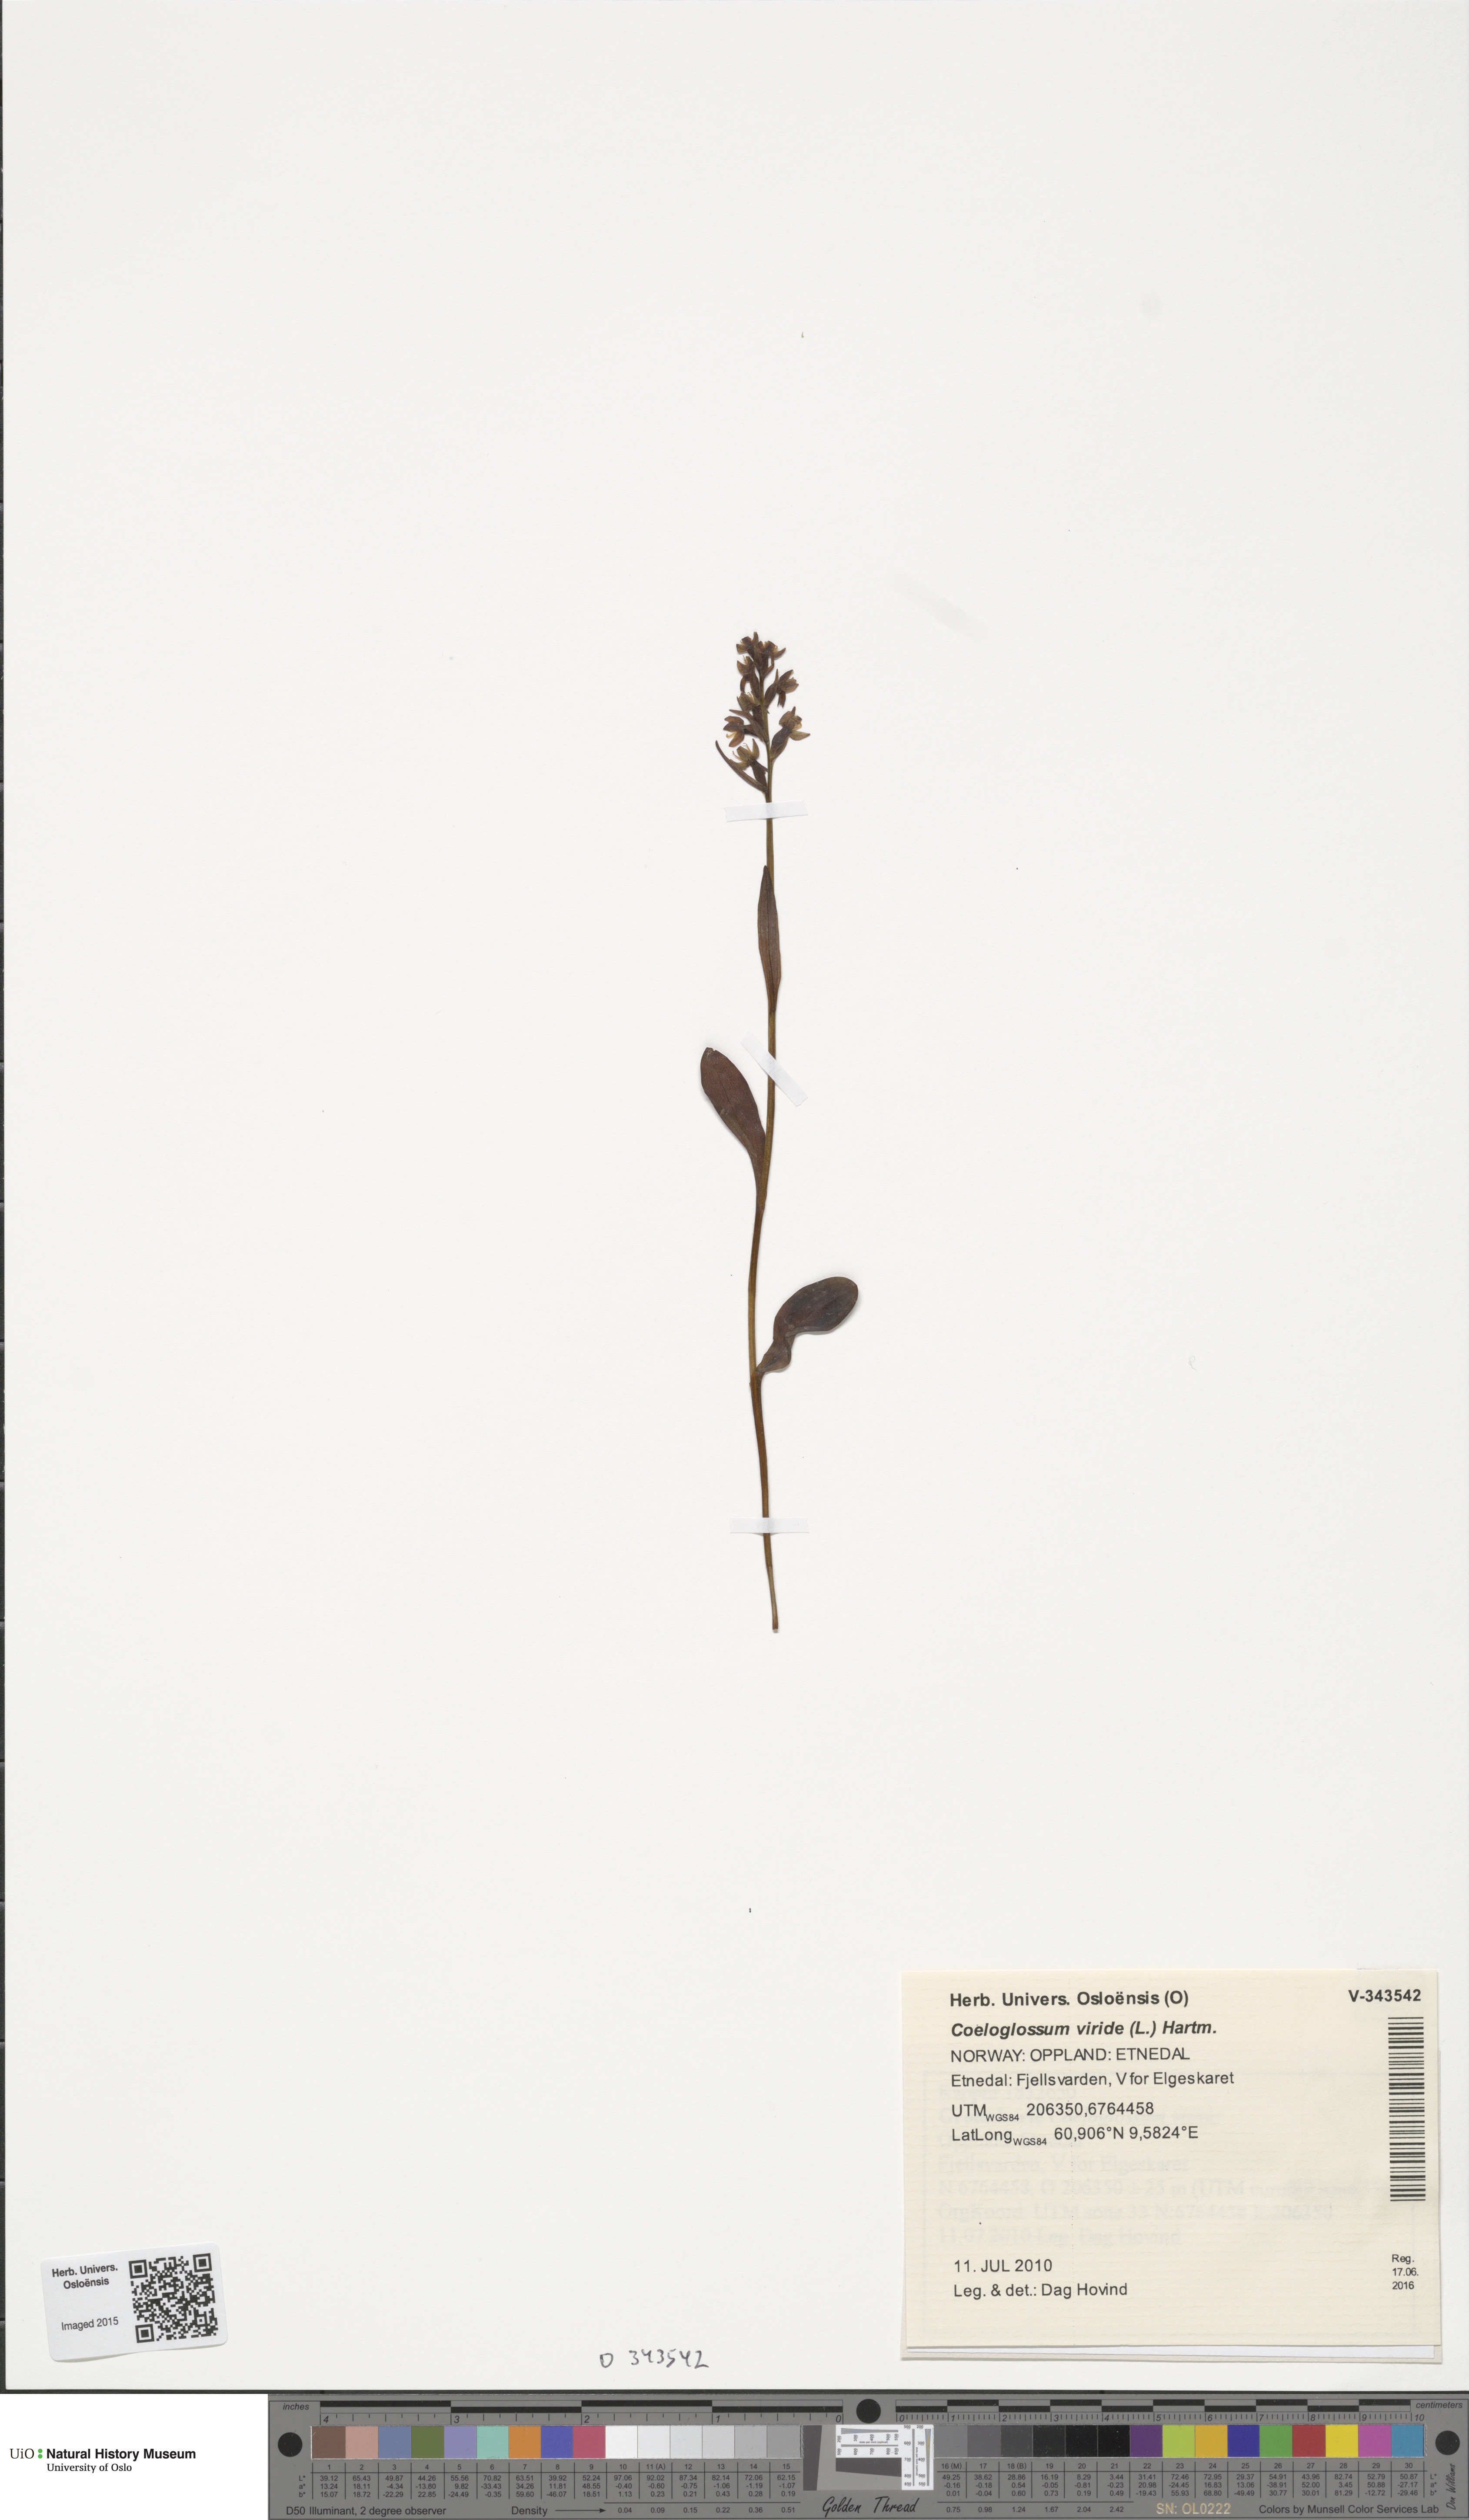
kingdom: Plantae
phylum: Tracheophyta
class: Liliopsida
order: Asparagales
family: Orchidaceae
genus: Dactylorhiza
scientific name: Dactylorhiza viridis
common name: Longbract frog orchid
